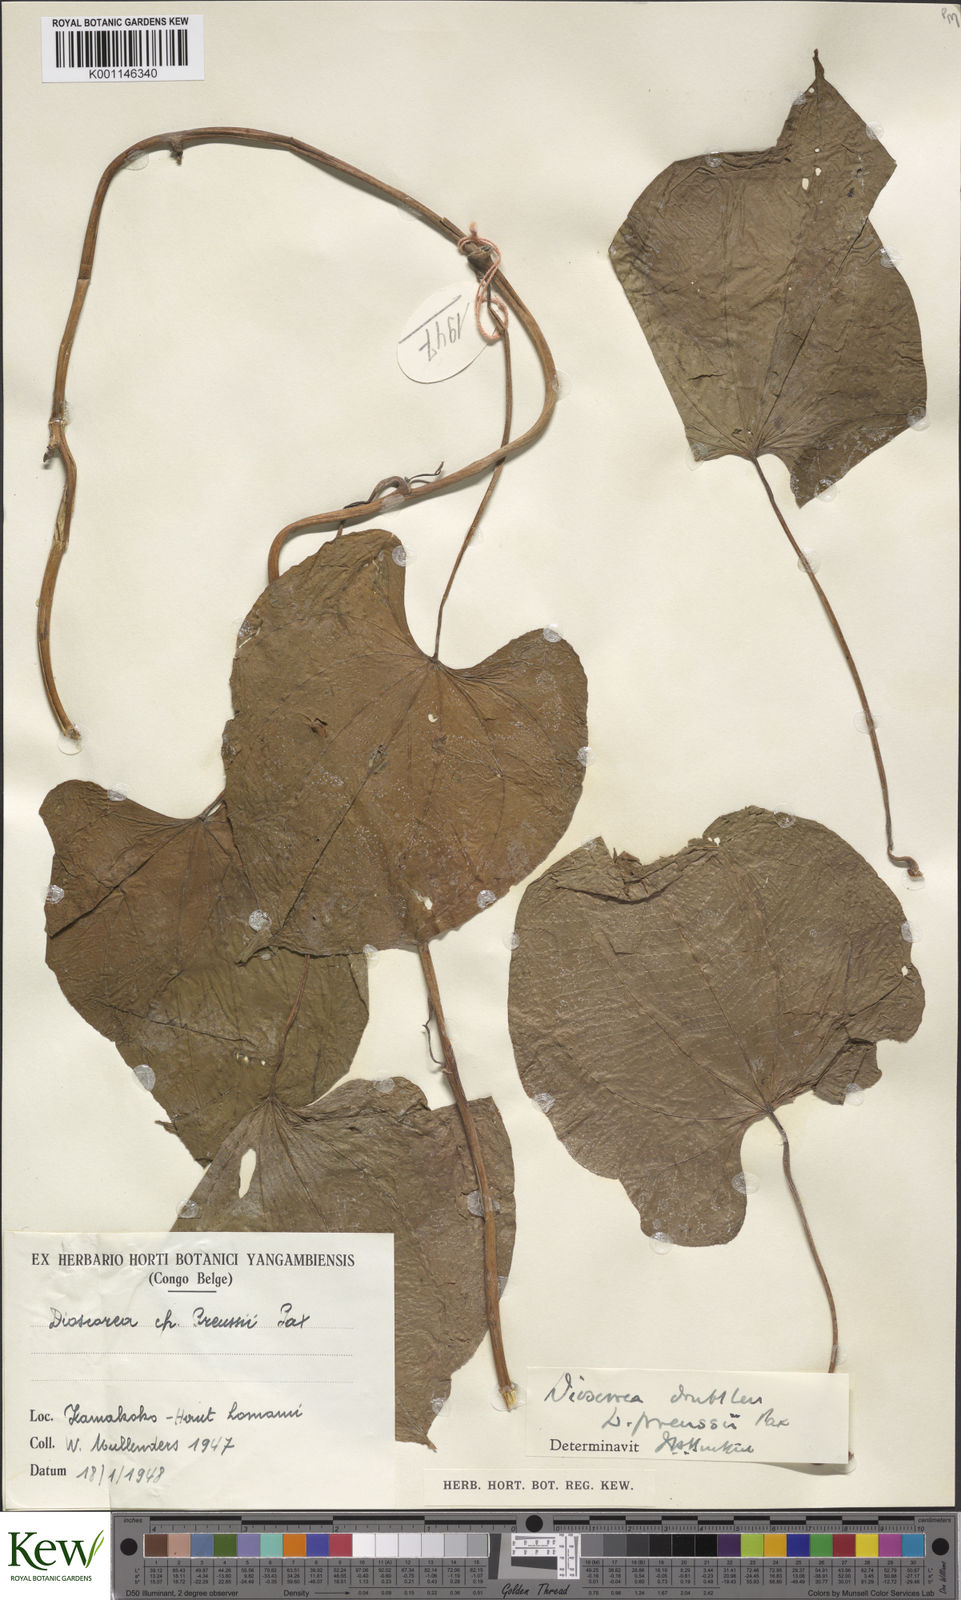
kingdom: Plantae
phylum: Tracheophyta
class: Liliopsida
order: Dioscoreales
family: Dioscoreaceae
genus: Dioscorea
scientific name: Dioscorea preussii
